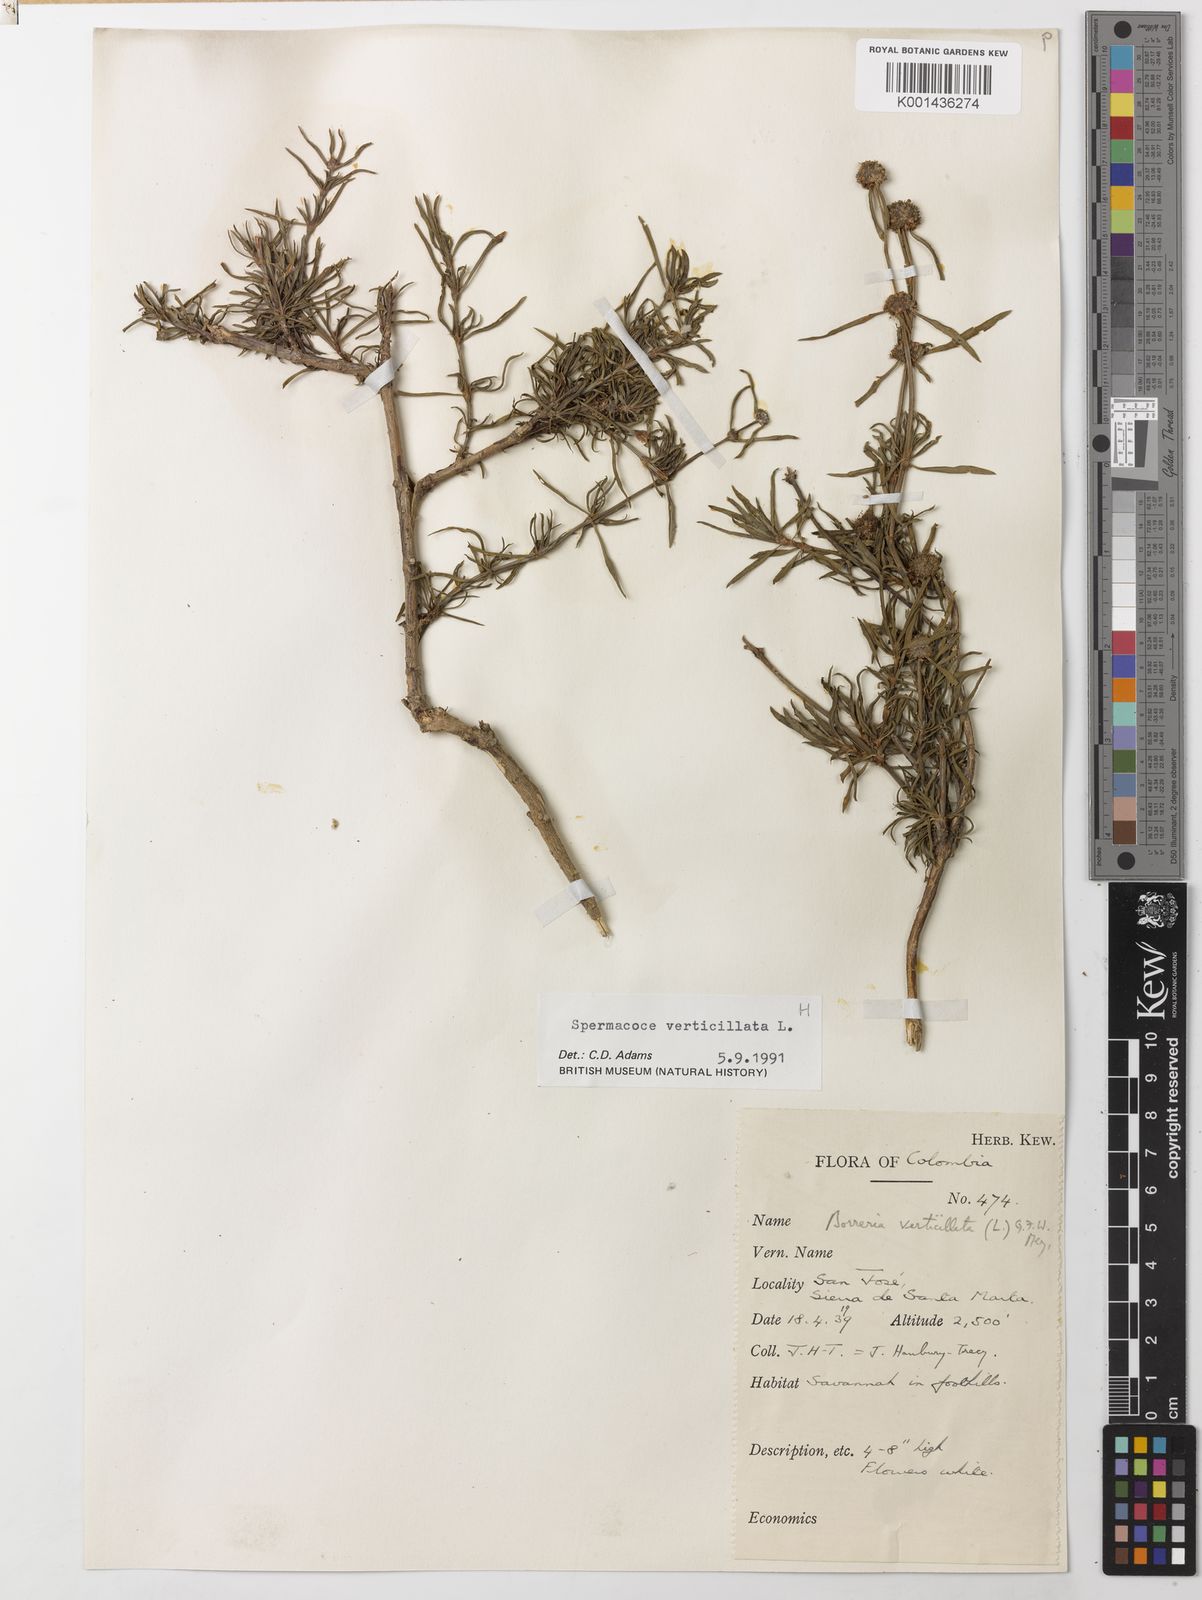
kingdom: Plantae
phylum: Tracheophyta
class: Magnoliopsida
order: Gentianales
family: Rubiaceae
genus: Spermacoce
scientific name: Spermacoce verticillata
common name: Shrubby false buttonweed
